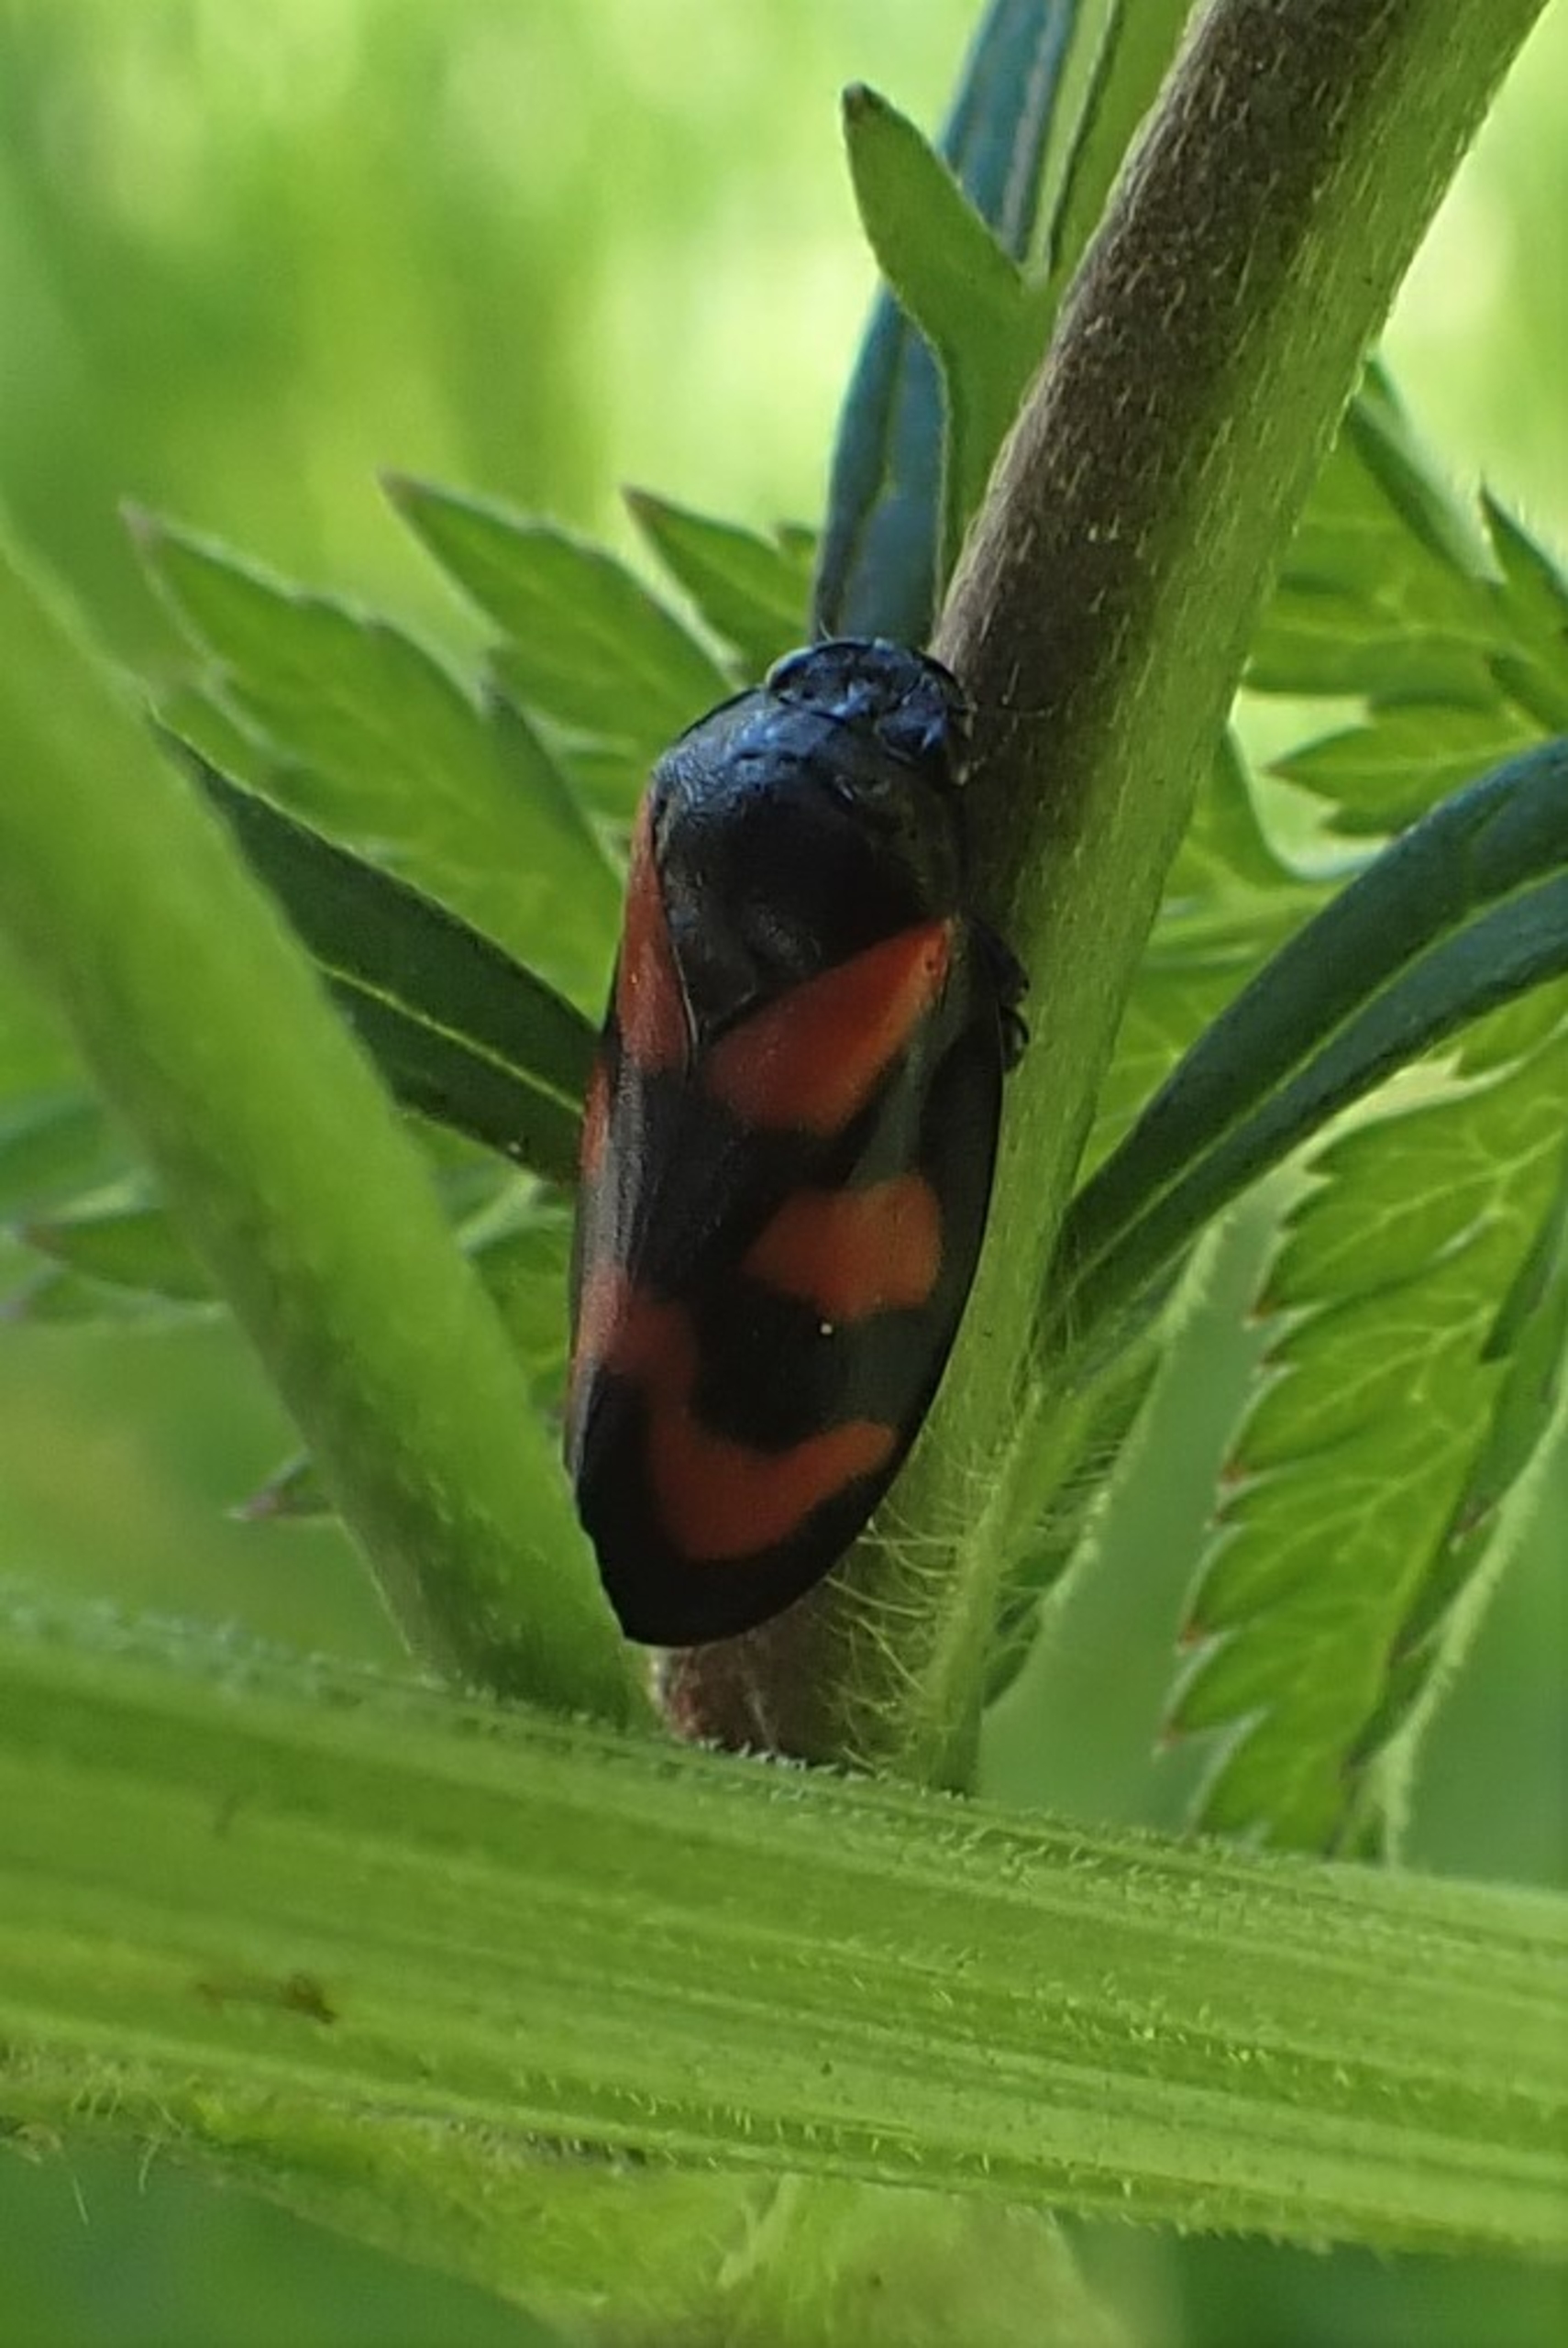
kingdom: Animalia
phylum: Arthropoda
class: Insecta
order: Hemiptera
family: Cercopidae
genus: Cercopis
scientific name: Cercopis vulnerata
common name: Blodcikade
